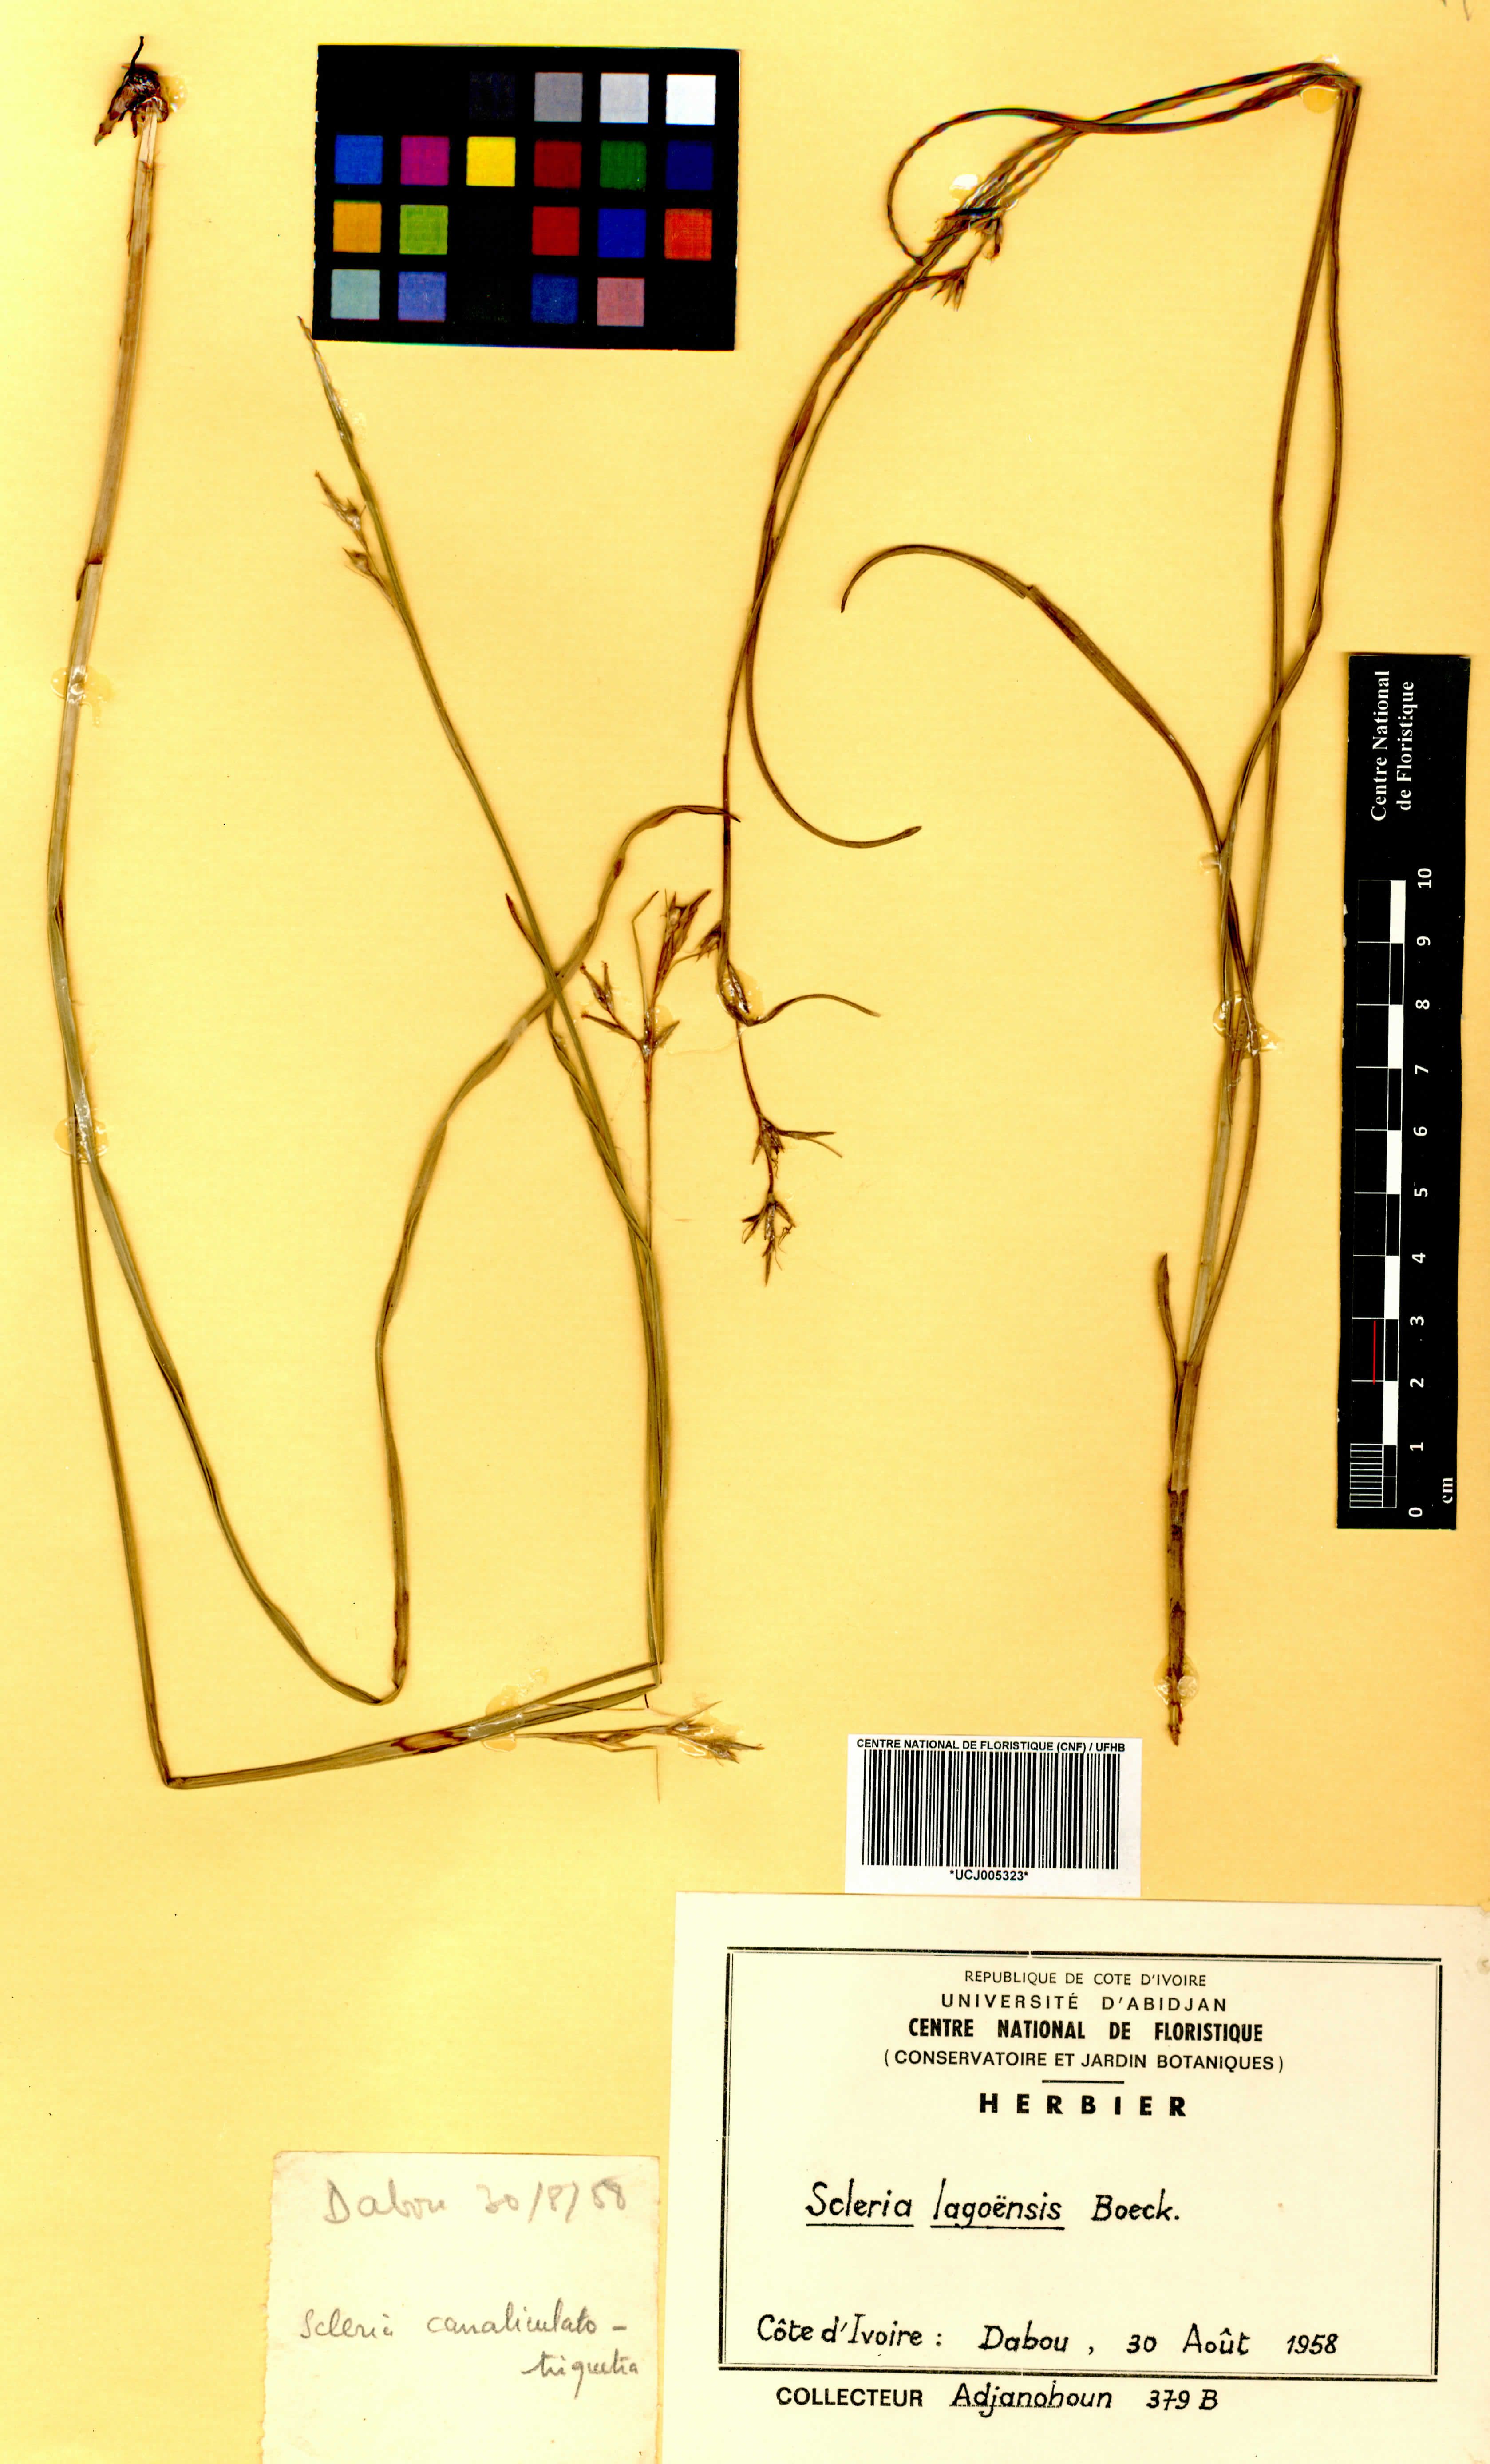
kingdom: Plantae
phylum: Tracheophyta
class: Liliopsida
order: Poales
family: Cyperaceae
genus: Scleria
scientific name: Scleria lagoensis
